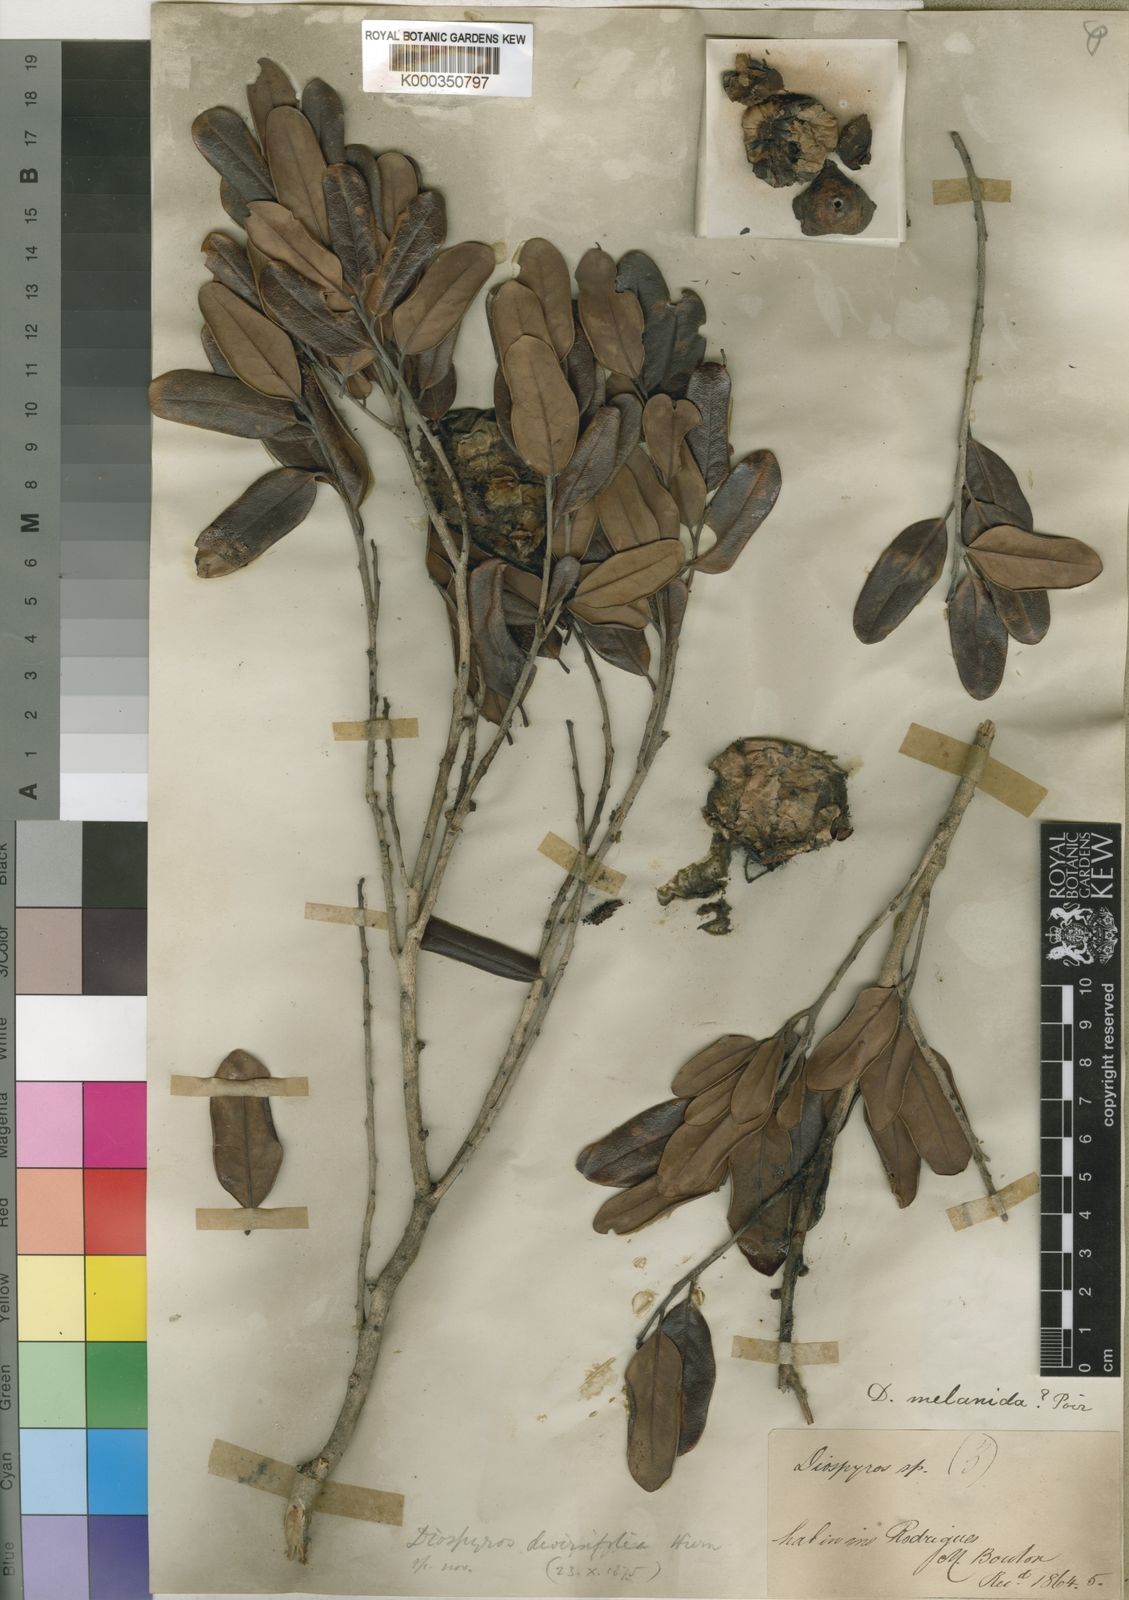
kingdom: Plantae
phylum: Tracheophyta
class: Magnoliopsida
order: Ericales
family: Ebenaceae
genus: Diospyros
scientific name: Diospyros diversifolia
